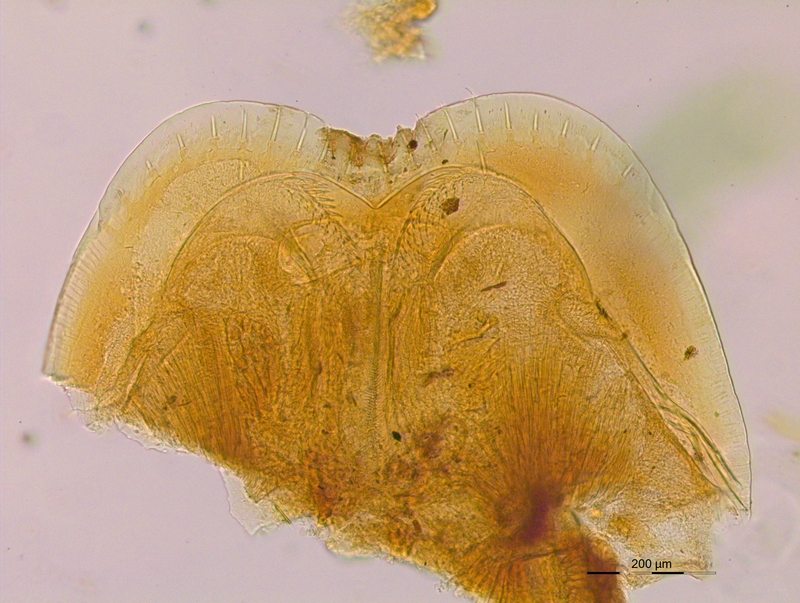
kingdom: Animalia
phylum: Arthropoda
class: Diplopoda
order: Julida
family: Mongoliulidae
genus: Skleroprotopus
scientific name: Skleroprotopus longiventris
